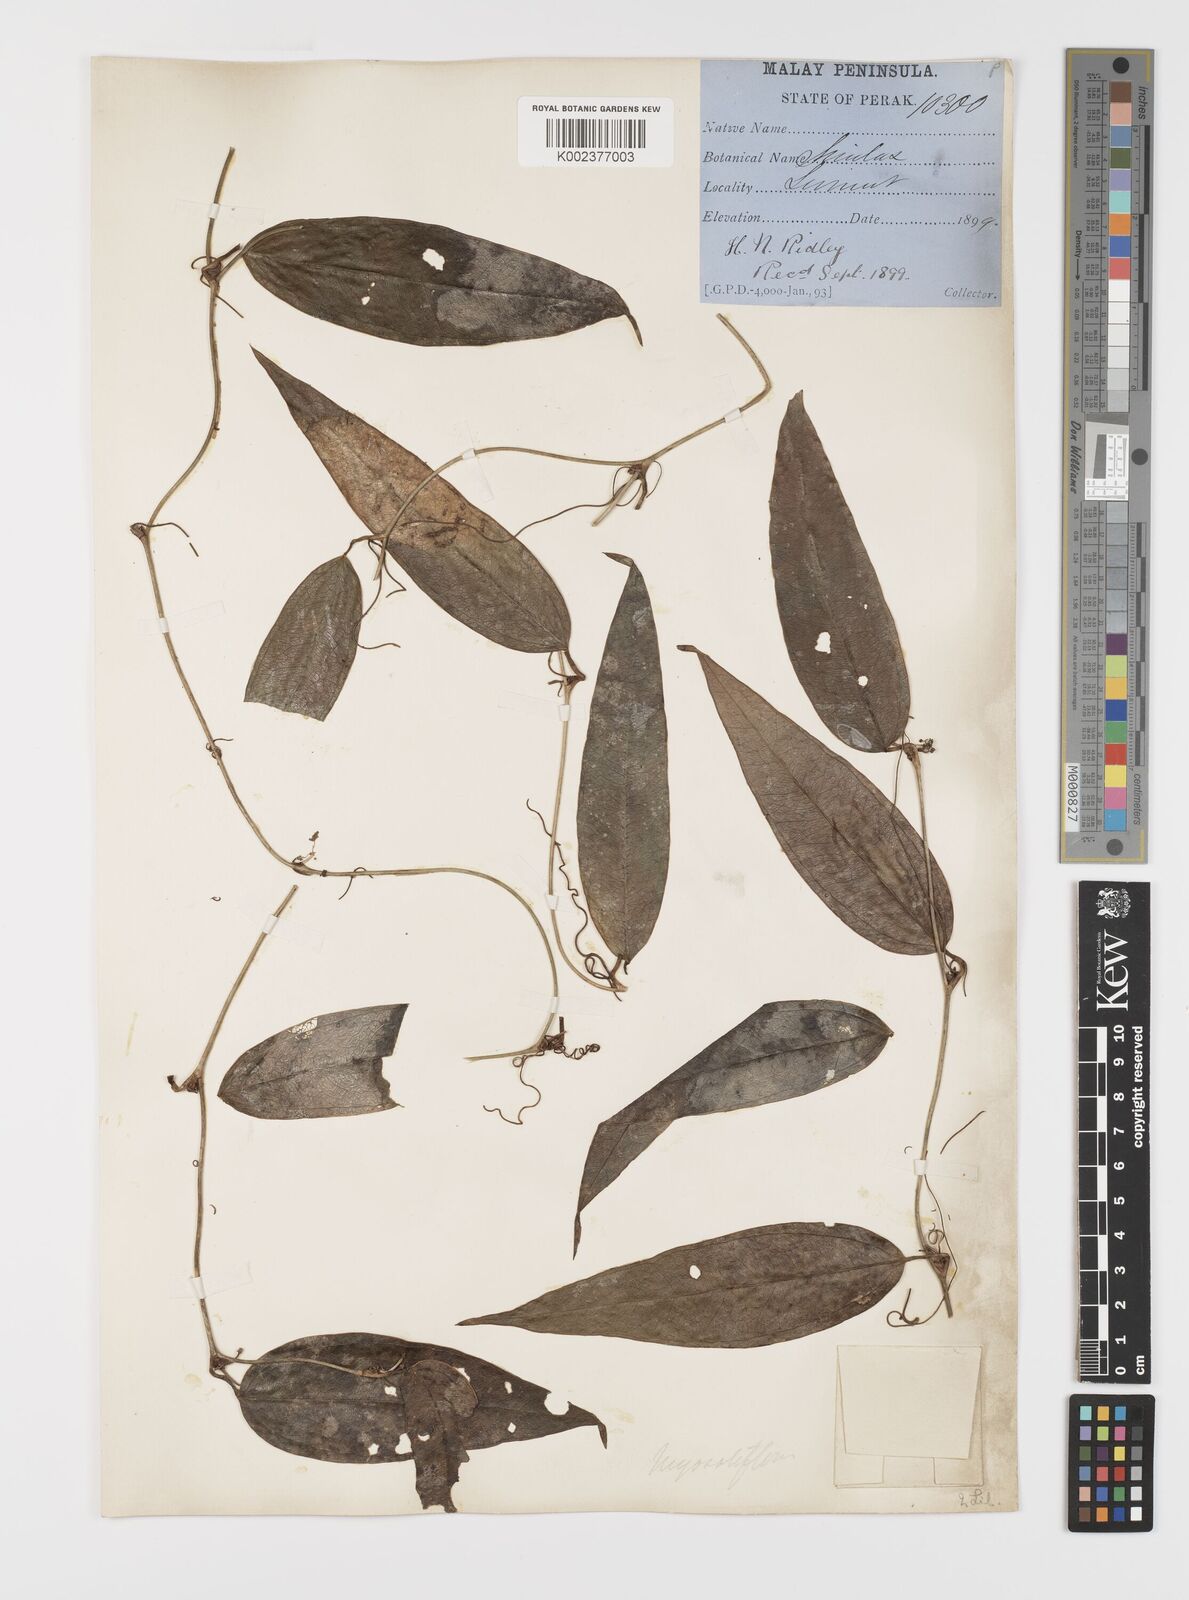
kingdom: Plantae
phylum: Tracheophyta
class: Liliopsida
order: Liliales
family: Smilacaceae
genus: Smilax
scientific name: Smilax myosotiflora
